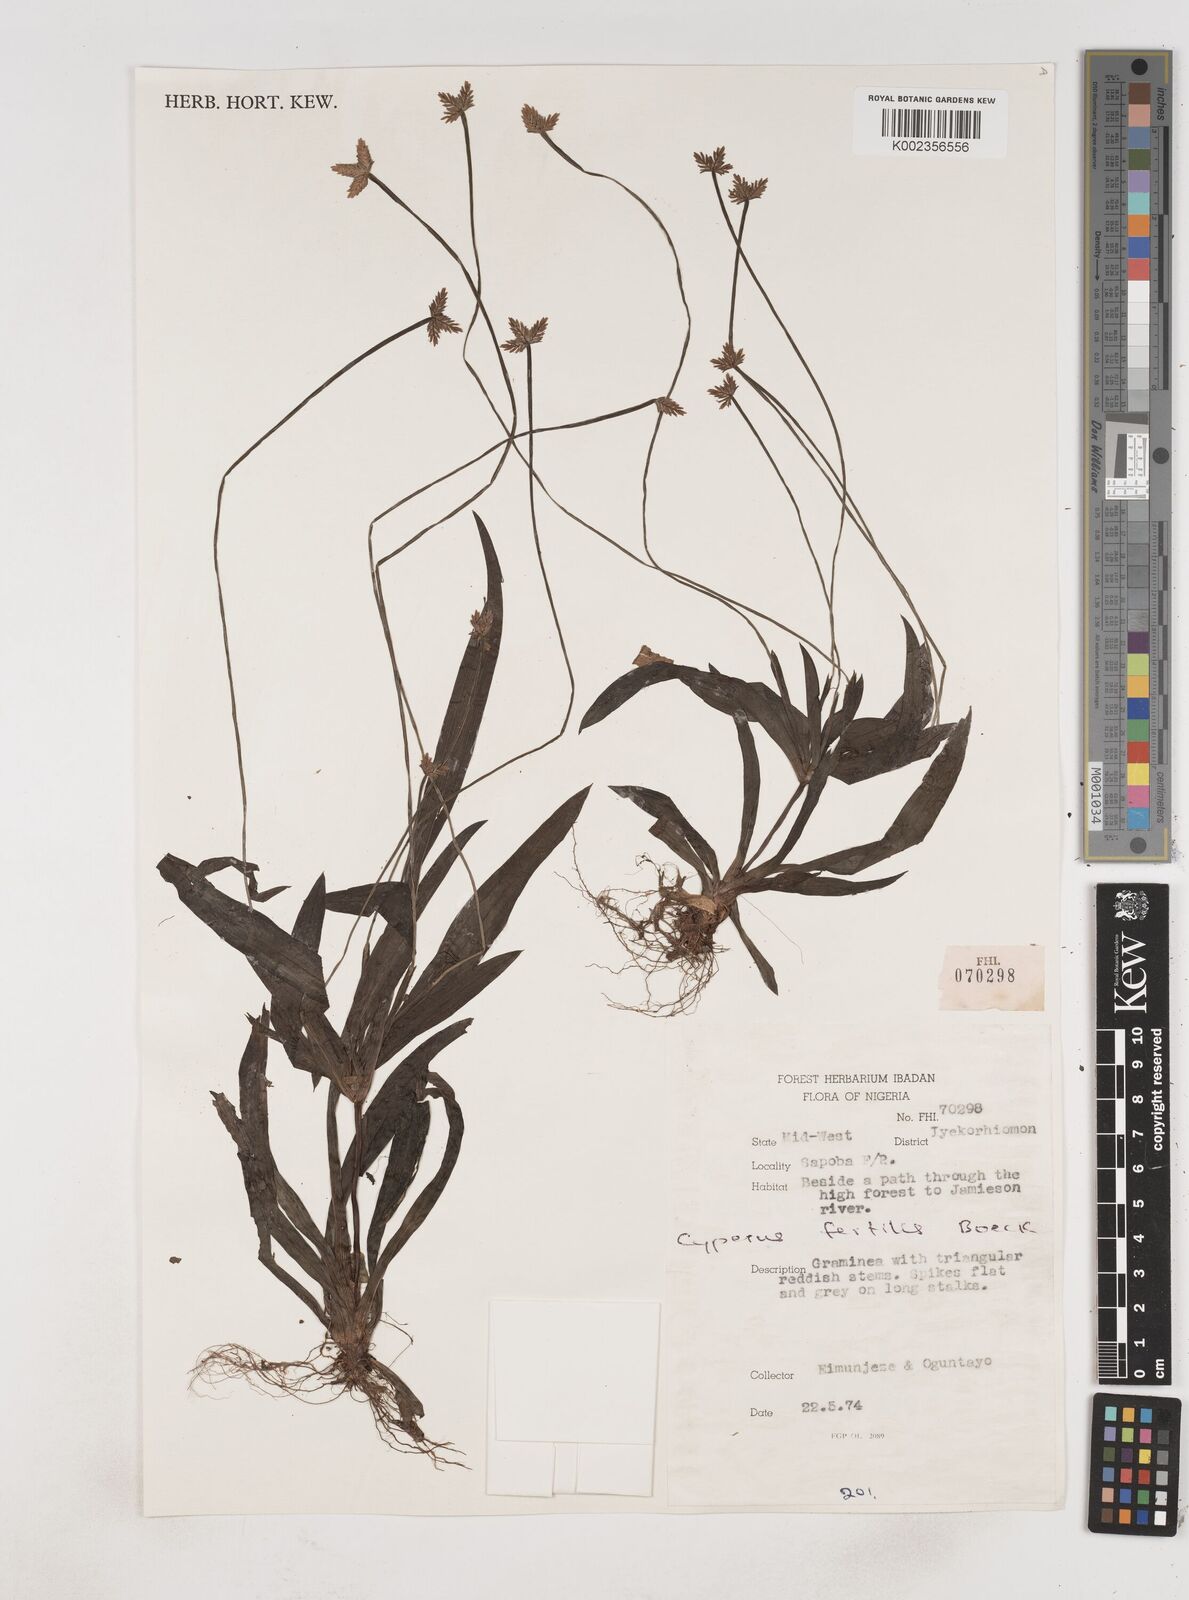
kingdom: Plantae
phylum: Tracheophyta
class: Liliopsida
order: Poales
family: Cyperaceae
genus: Cyperus
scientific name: Cyperus fertilis
